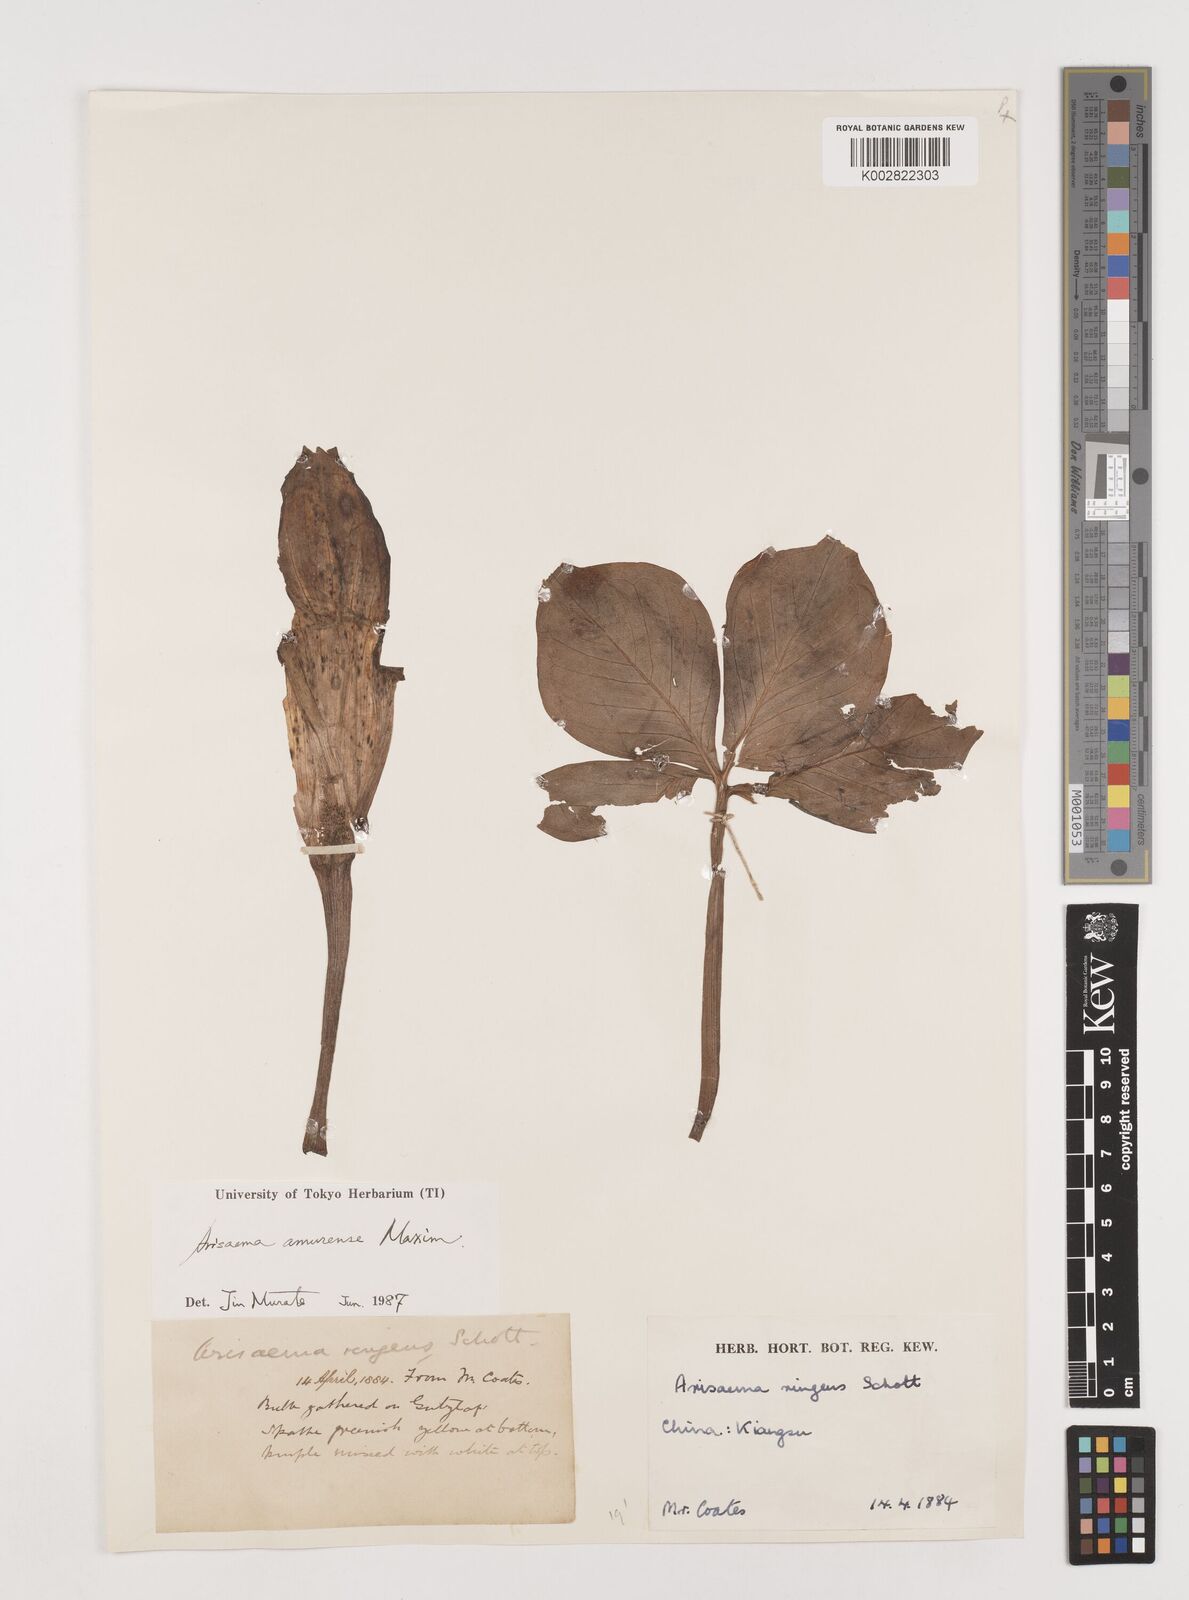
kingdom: Plantae
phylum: Tracheophyta
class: Liliopsida
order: Alismatales
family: Araceae
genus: Arisaema
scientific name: Arisaema amurense
